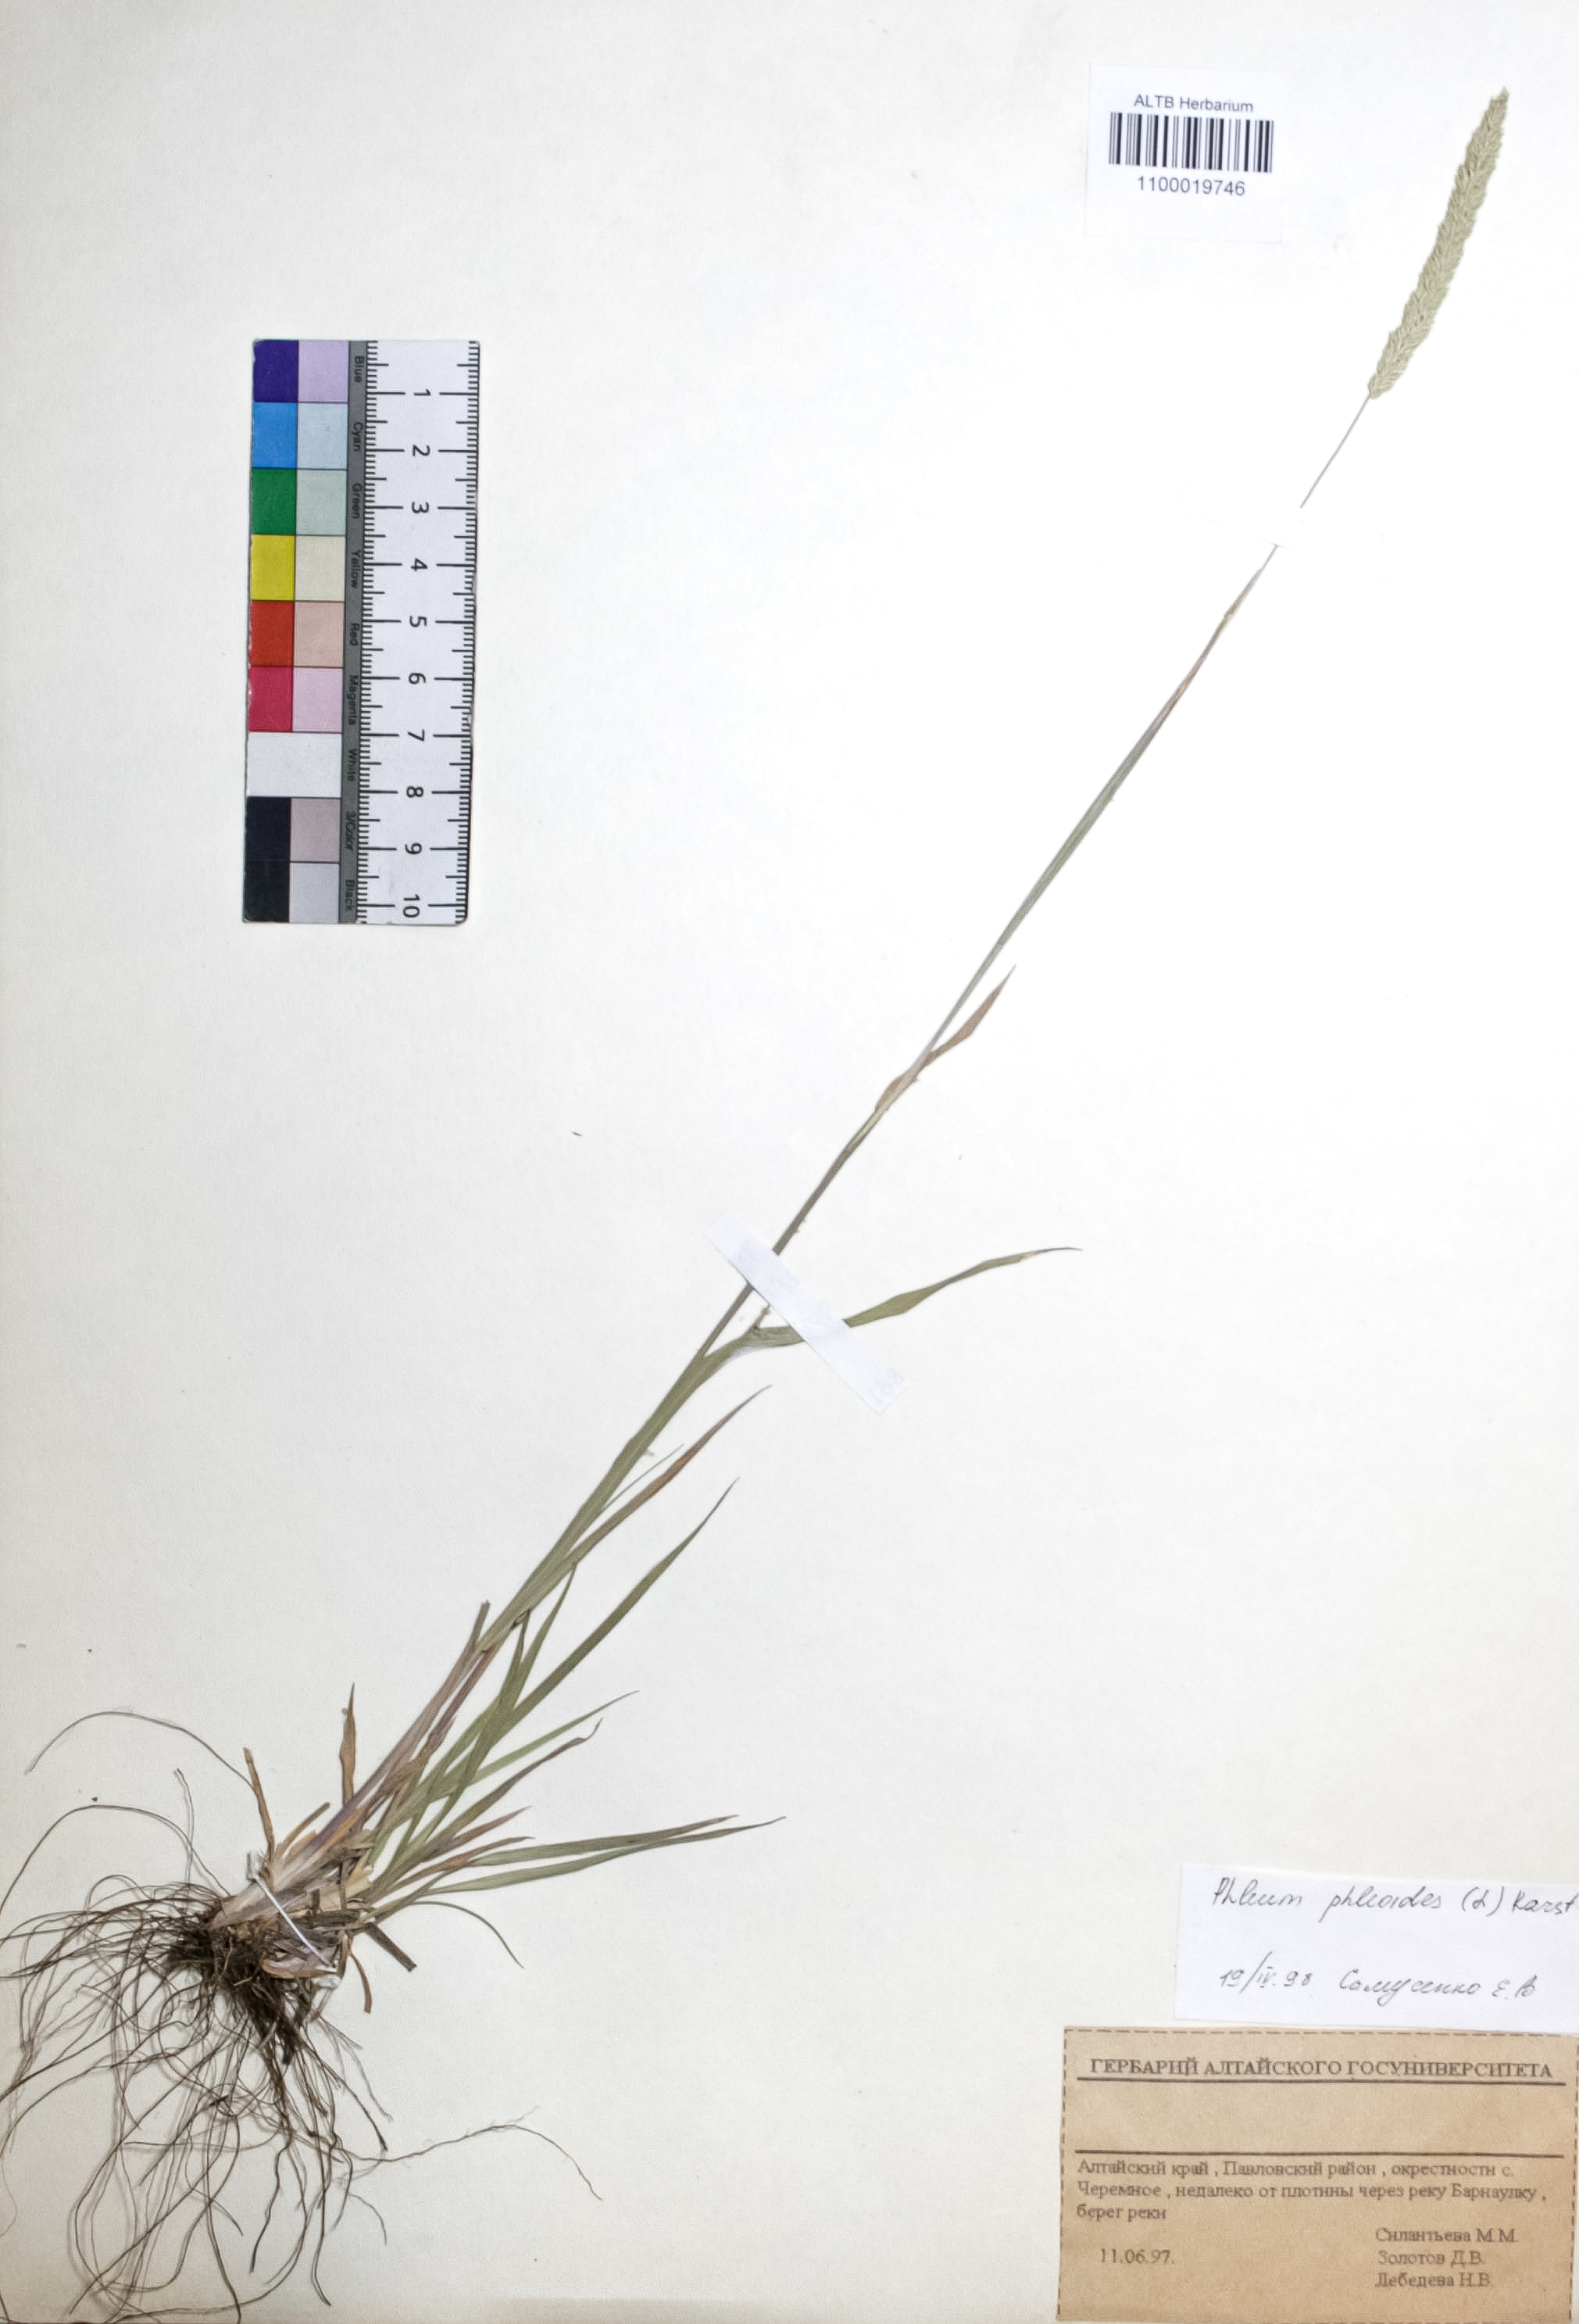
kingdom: Plantae
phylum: Tracheophyta
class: Liliopsida
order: Poales
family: Poaceae
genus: Phleum
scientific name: Phleum phleoides
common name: Purple-stem cat's-tail
